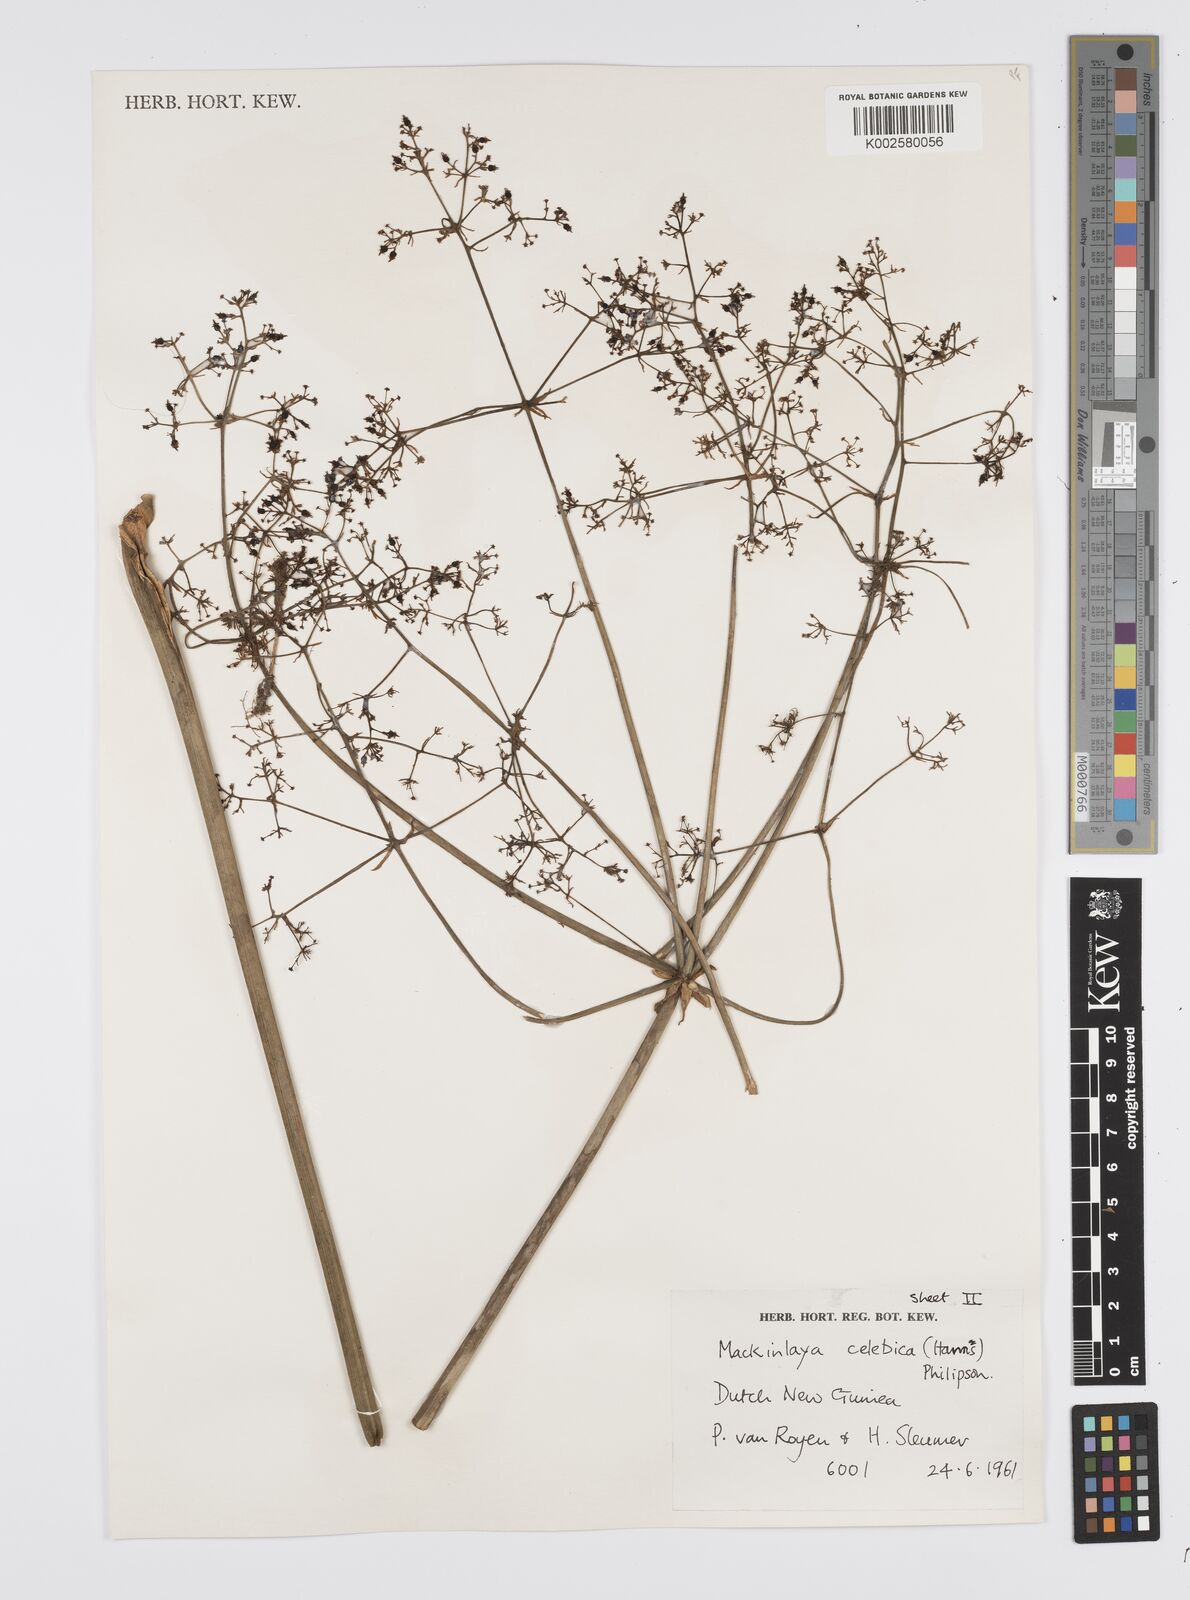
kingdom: Plantae
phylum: Tracheophyta
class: Magnoliopsida
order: Apiales
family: Apiaceae
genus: Mackinlaya
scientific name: Mackinlaya celebica
